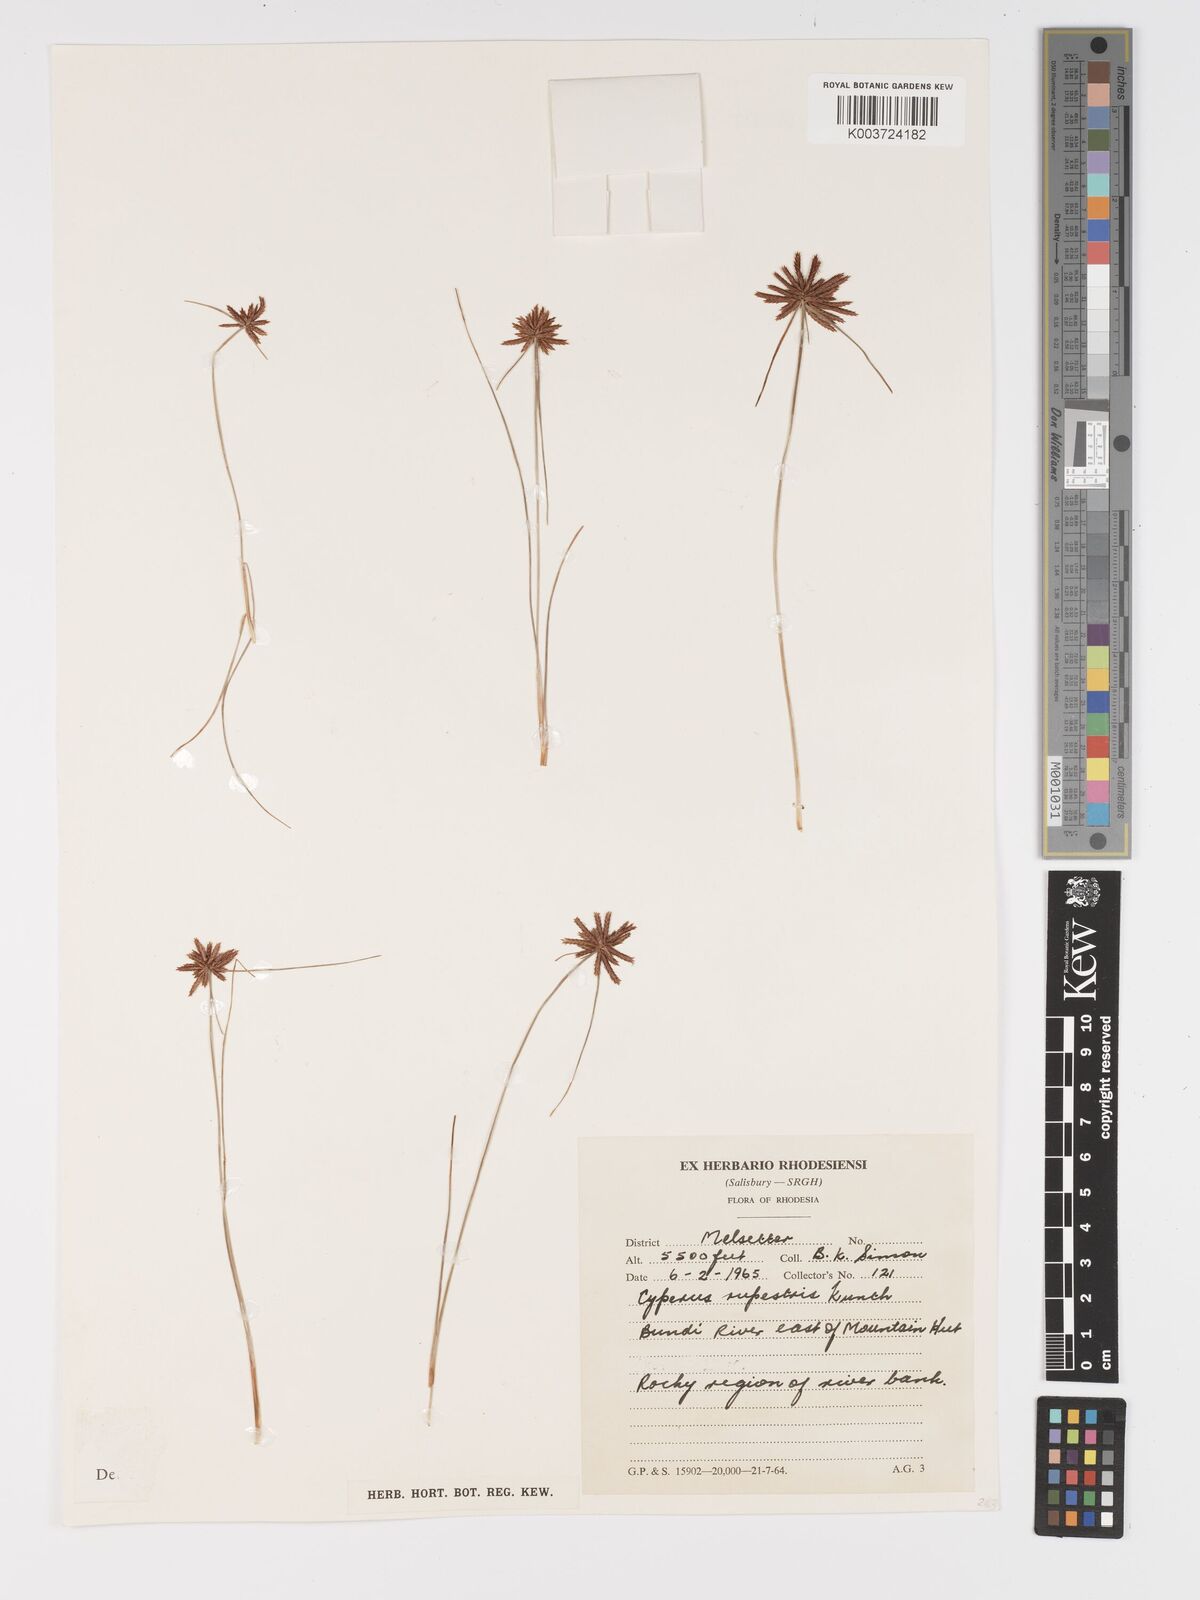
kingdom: Plantae
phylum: Tracheophyta
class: Liliopsida
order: Poales
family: Cyperaceae
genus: Cyperus
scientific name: Cyperus rupestris
